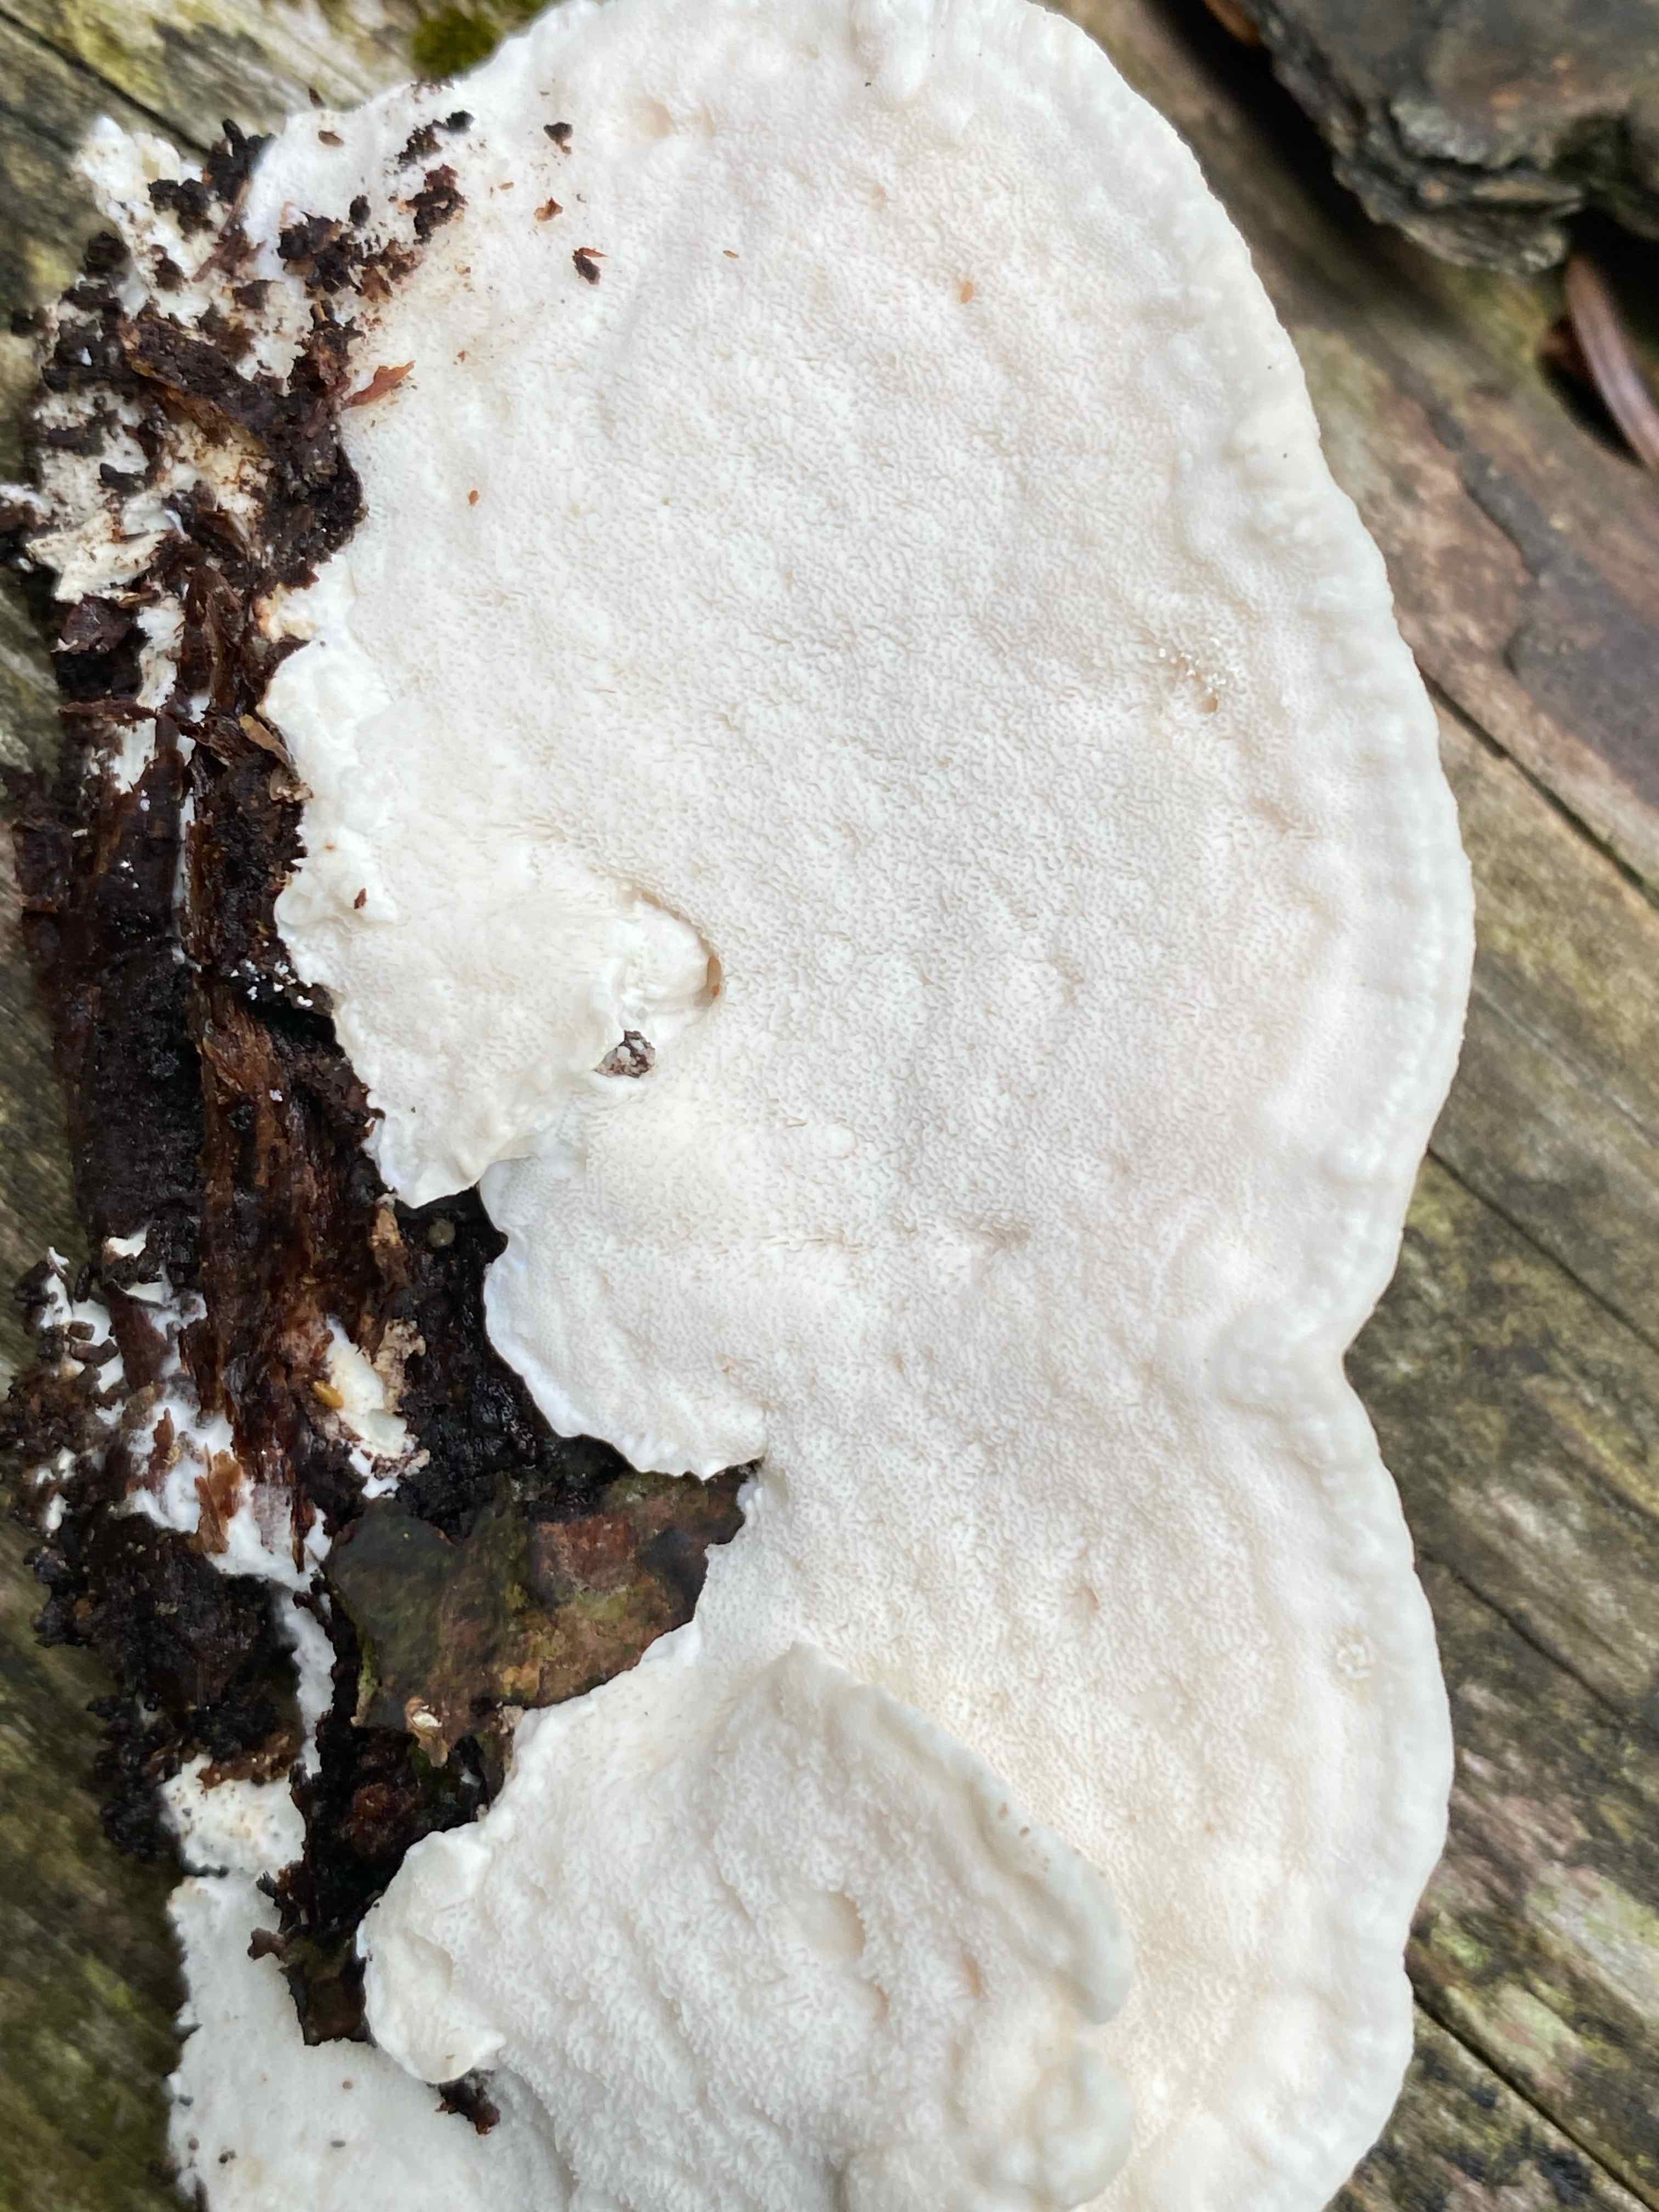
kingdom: Fungi
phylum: Basidiomycota
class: Agaricomycetes
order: Polyporales
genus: Amaropostia
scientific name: Amaropostia stiptica
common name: bitter kødporesvamp
